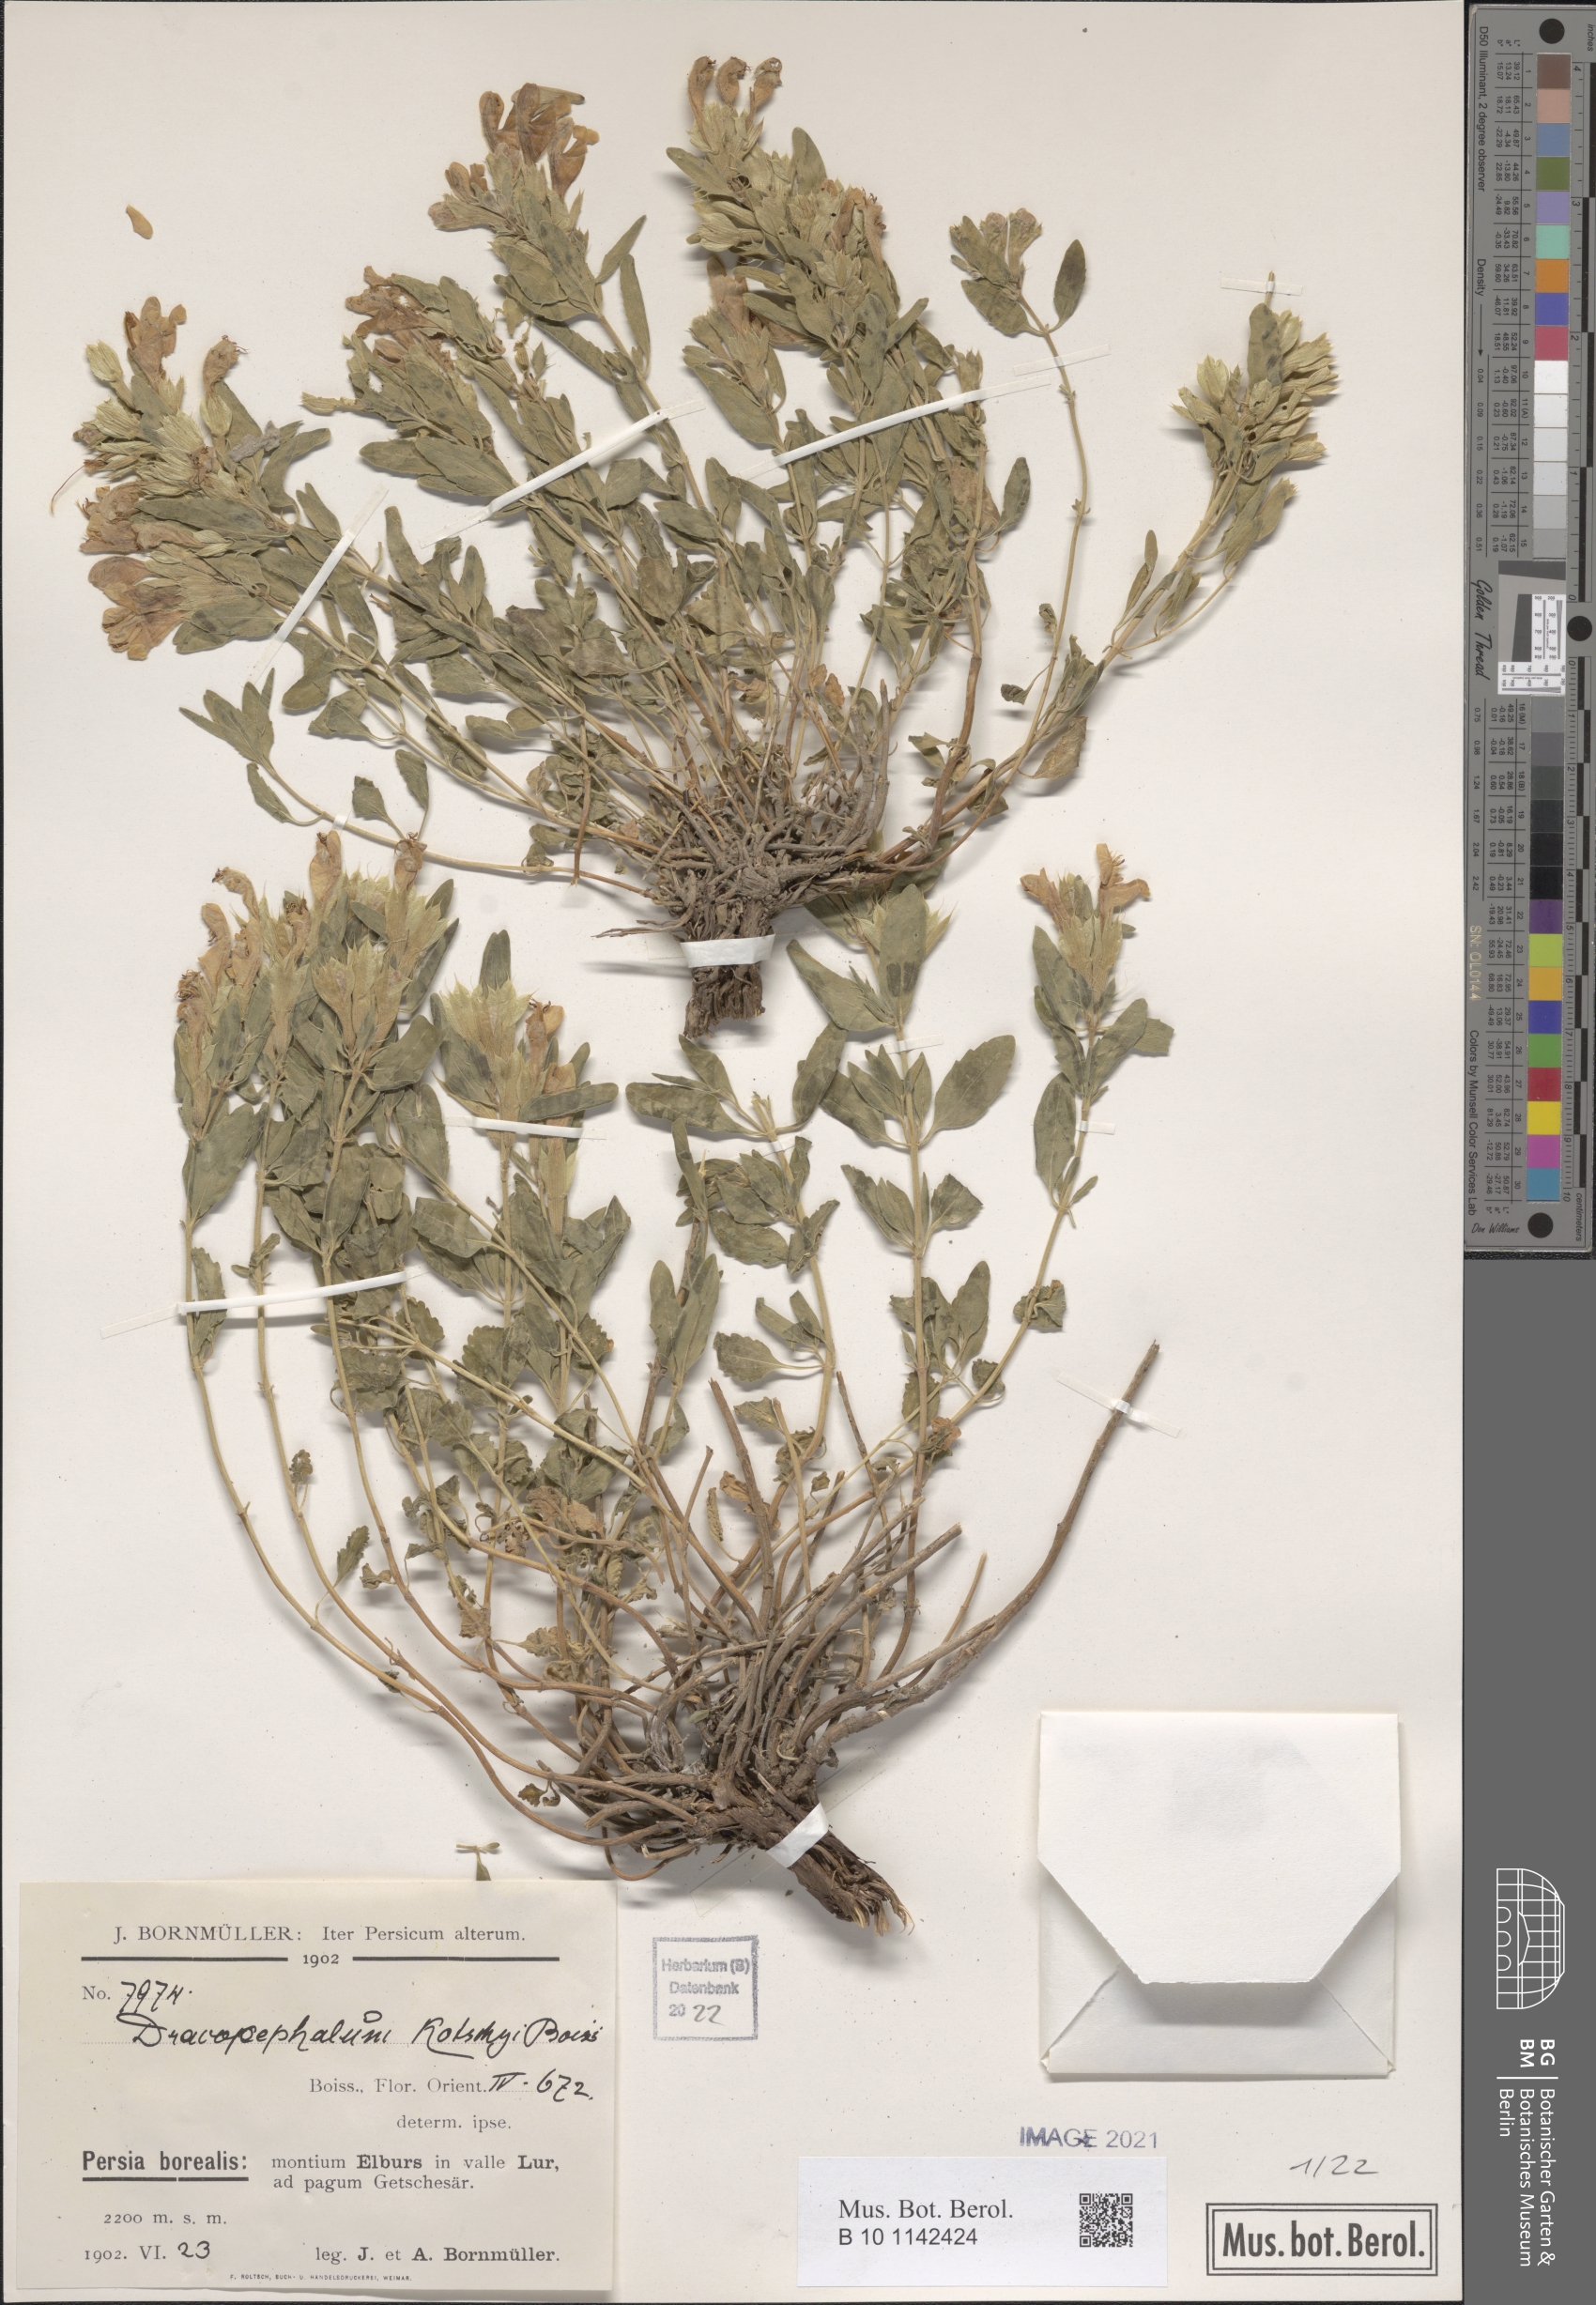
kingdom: Plantae
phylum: Tracheophyta
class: Magnoliopsida
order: Lamiales
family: Lamiaceae
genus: Dracocephalum
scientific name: Dracocephalum kotschyi
